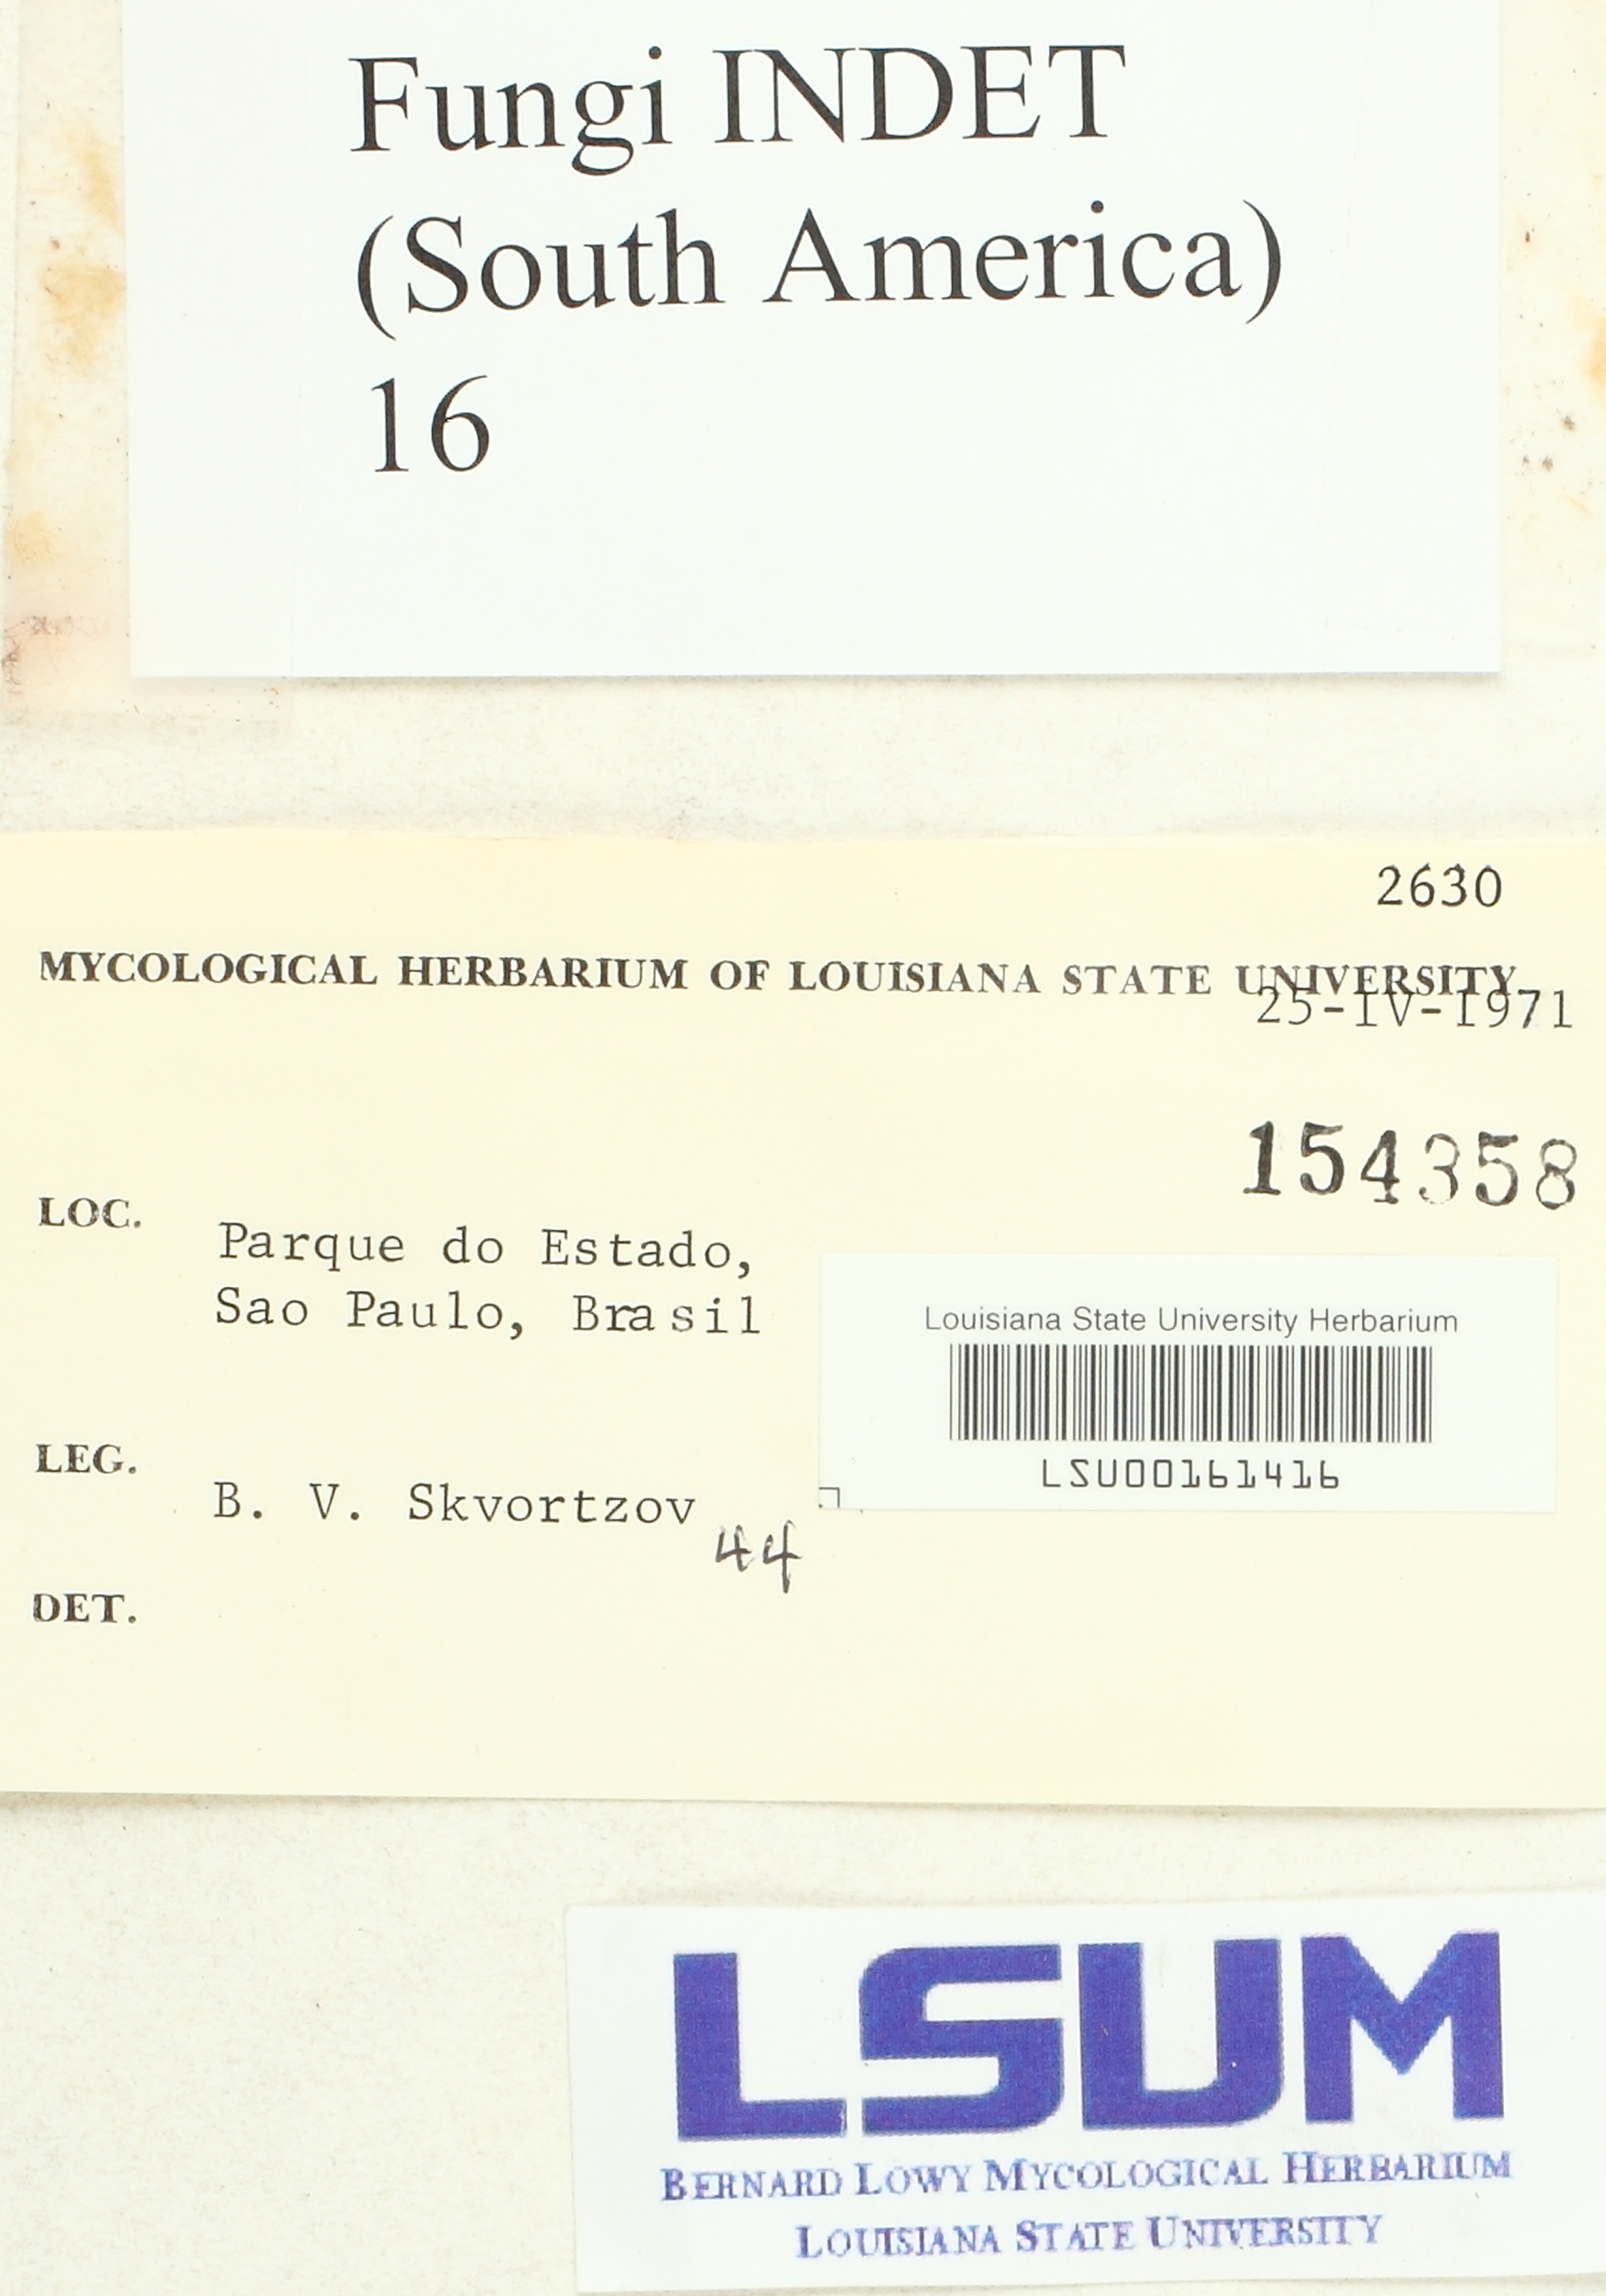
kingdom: Fungi
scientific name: Fungi
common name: Fungi
